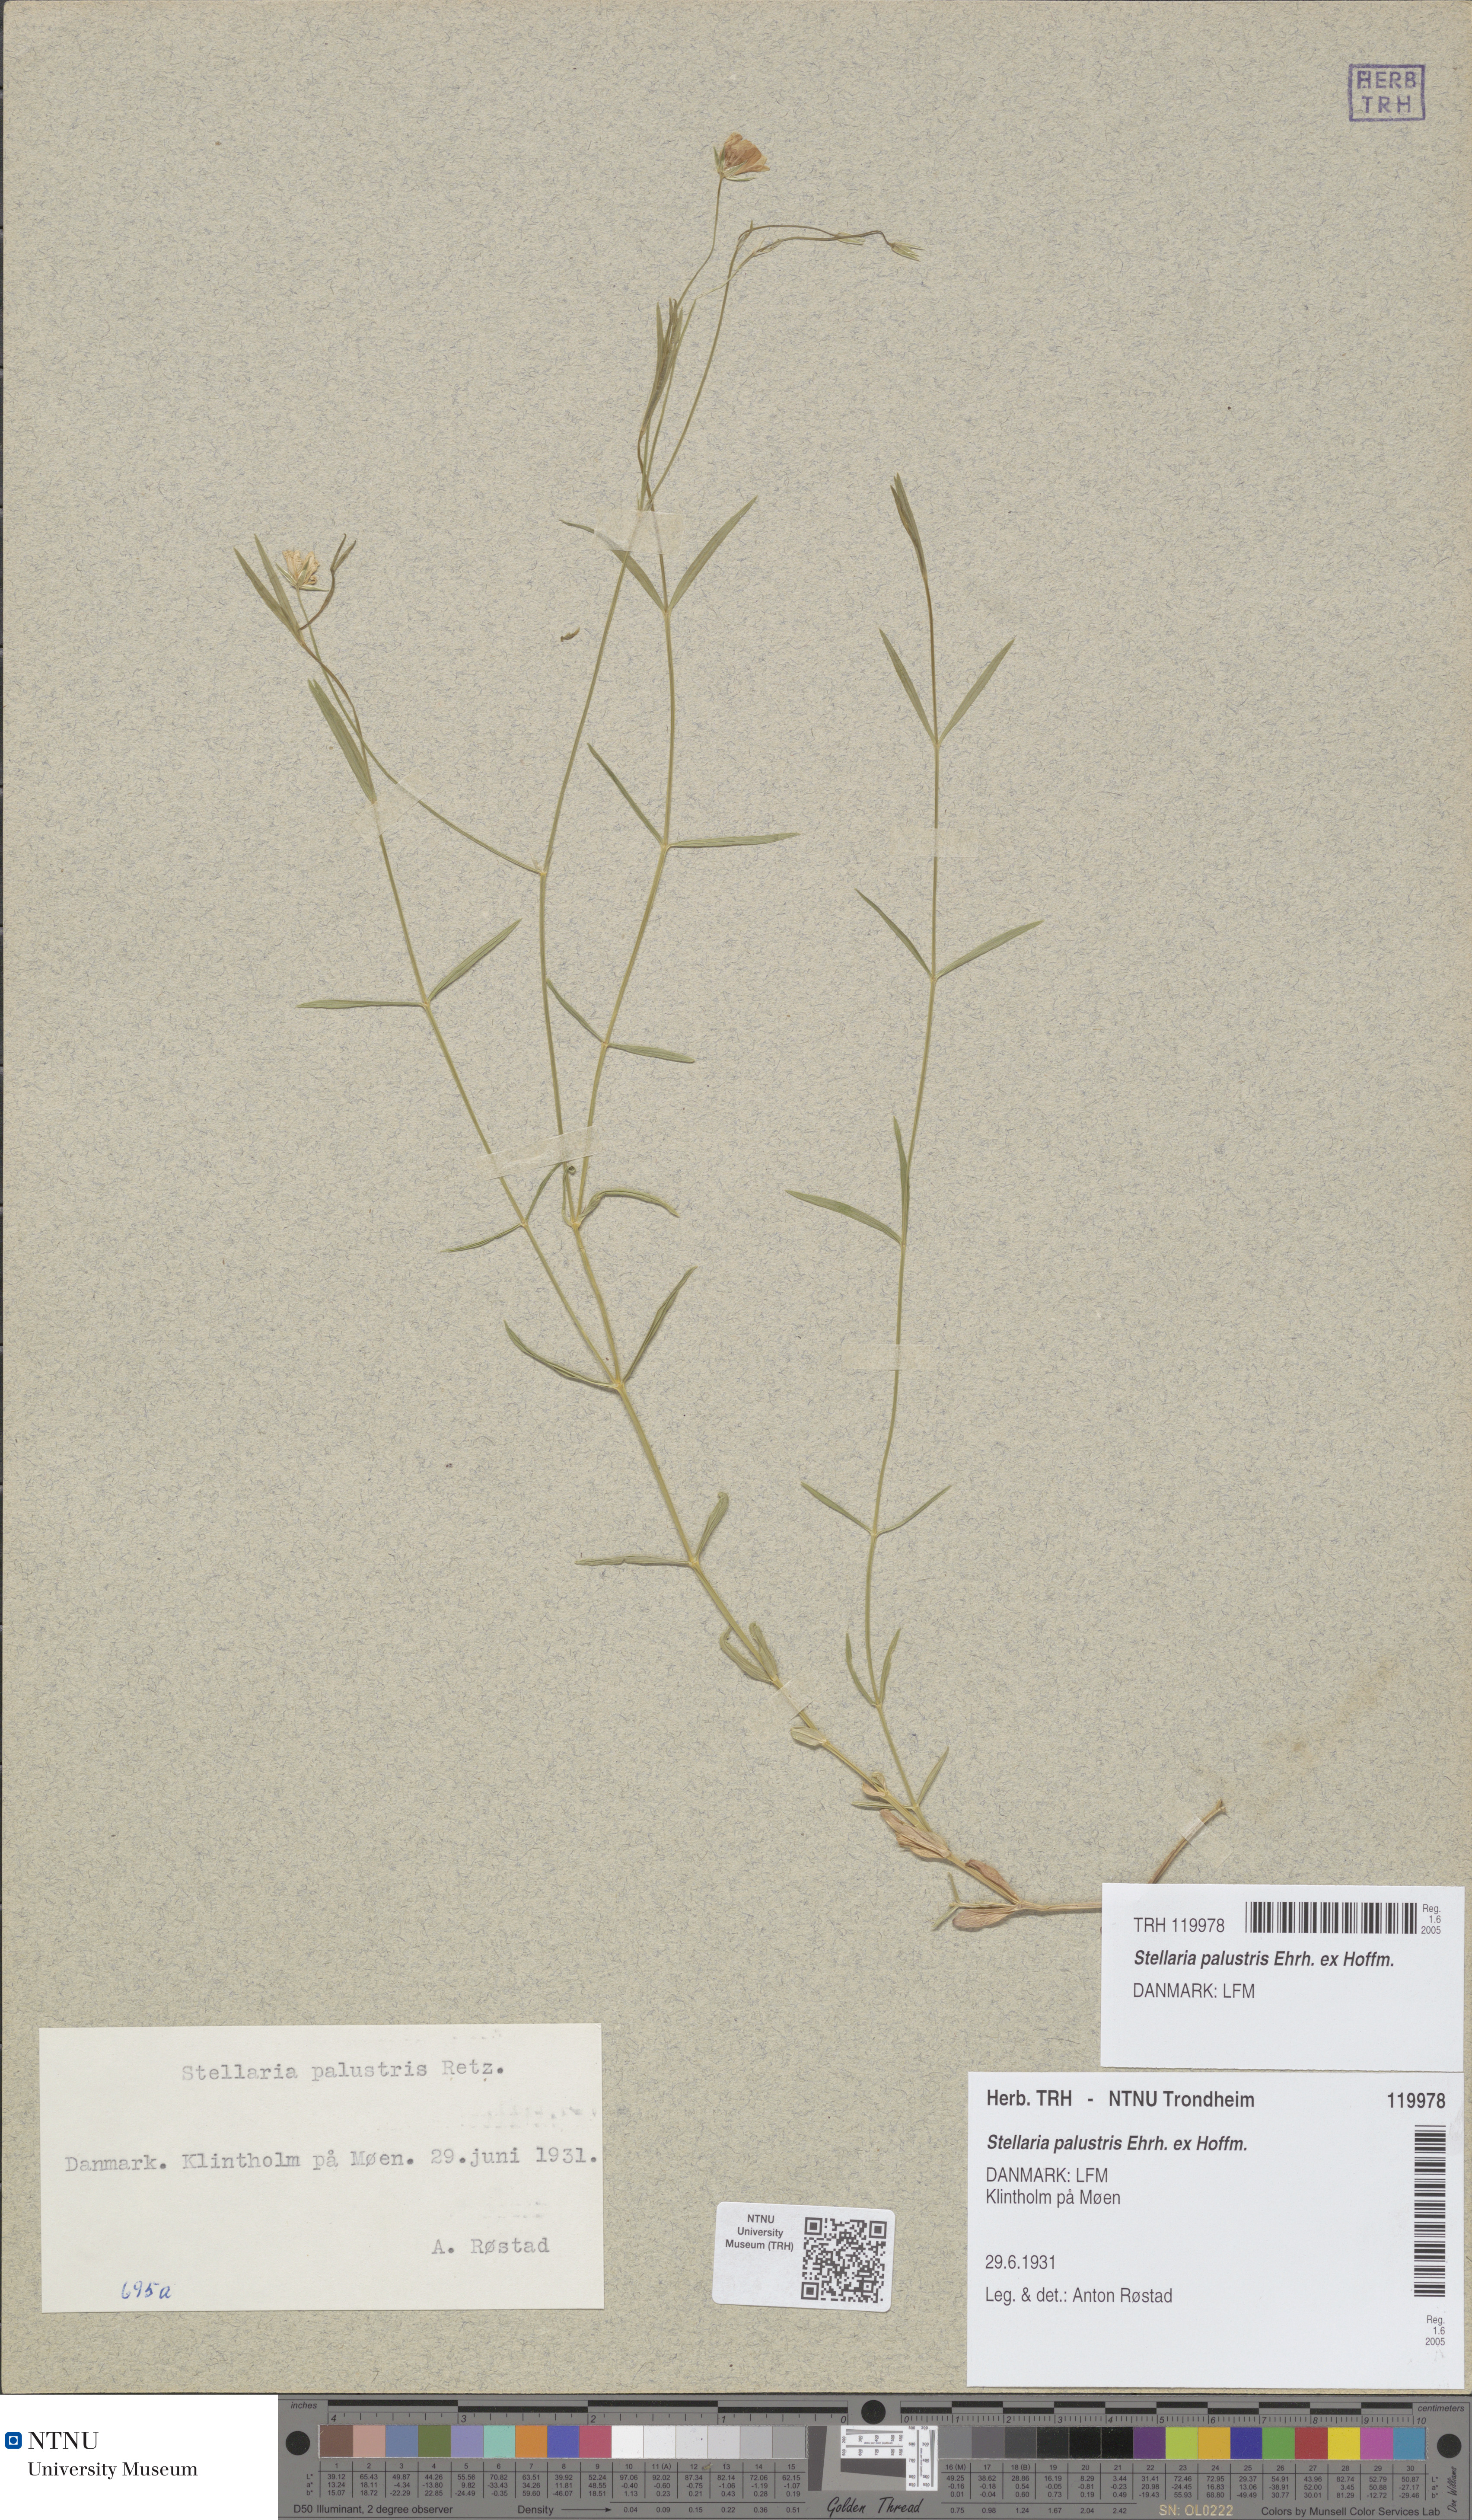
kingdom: Plantae
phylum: Tracheophyta
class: Magnoliopsida
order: Caryophyllales
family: Caryophyllaceae
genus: Stellaria
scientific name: Stellaria palustris
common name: Marsh stitchwort
